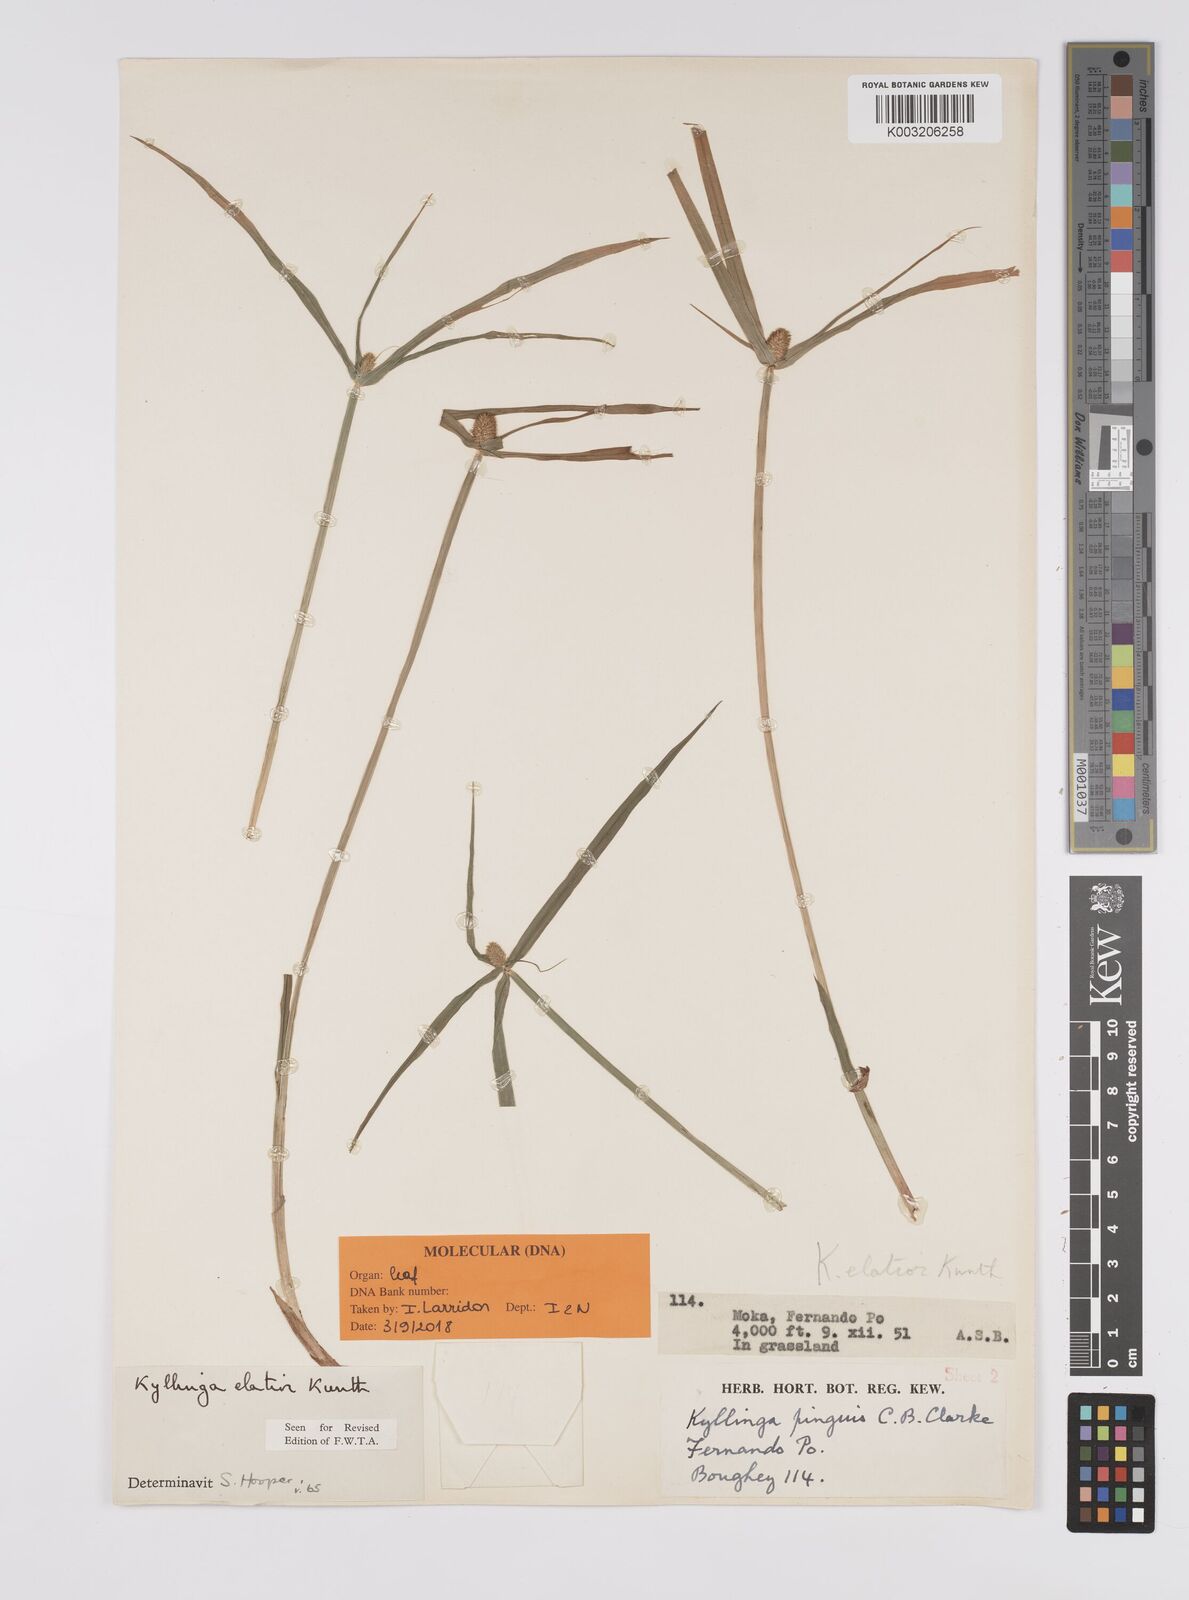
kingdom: Plantae
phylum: Tracheophyta
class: Liliopsida
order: Poales
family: Cyperaceae
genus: Cyperus
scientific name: Cyperus
